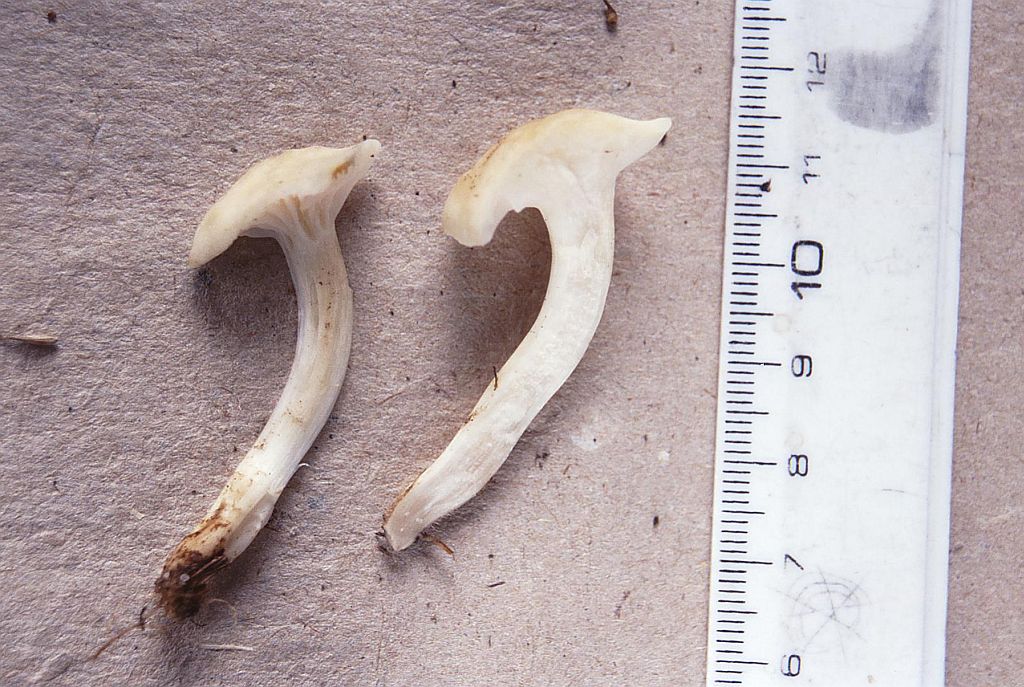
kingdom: Fungi
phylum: Basidiomycota
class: Agaricomycetes
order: Agaricales
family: Hygrophoraceae
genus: Cuphophyllus
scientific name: Cuphophyllus pratensis
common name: bleg vokshat
